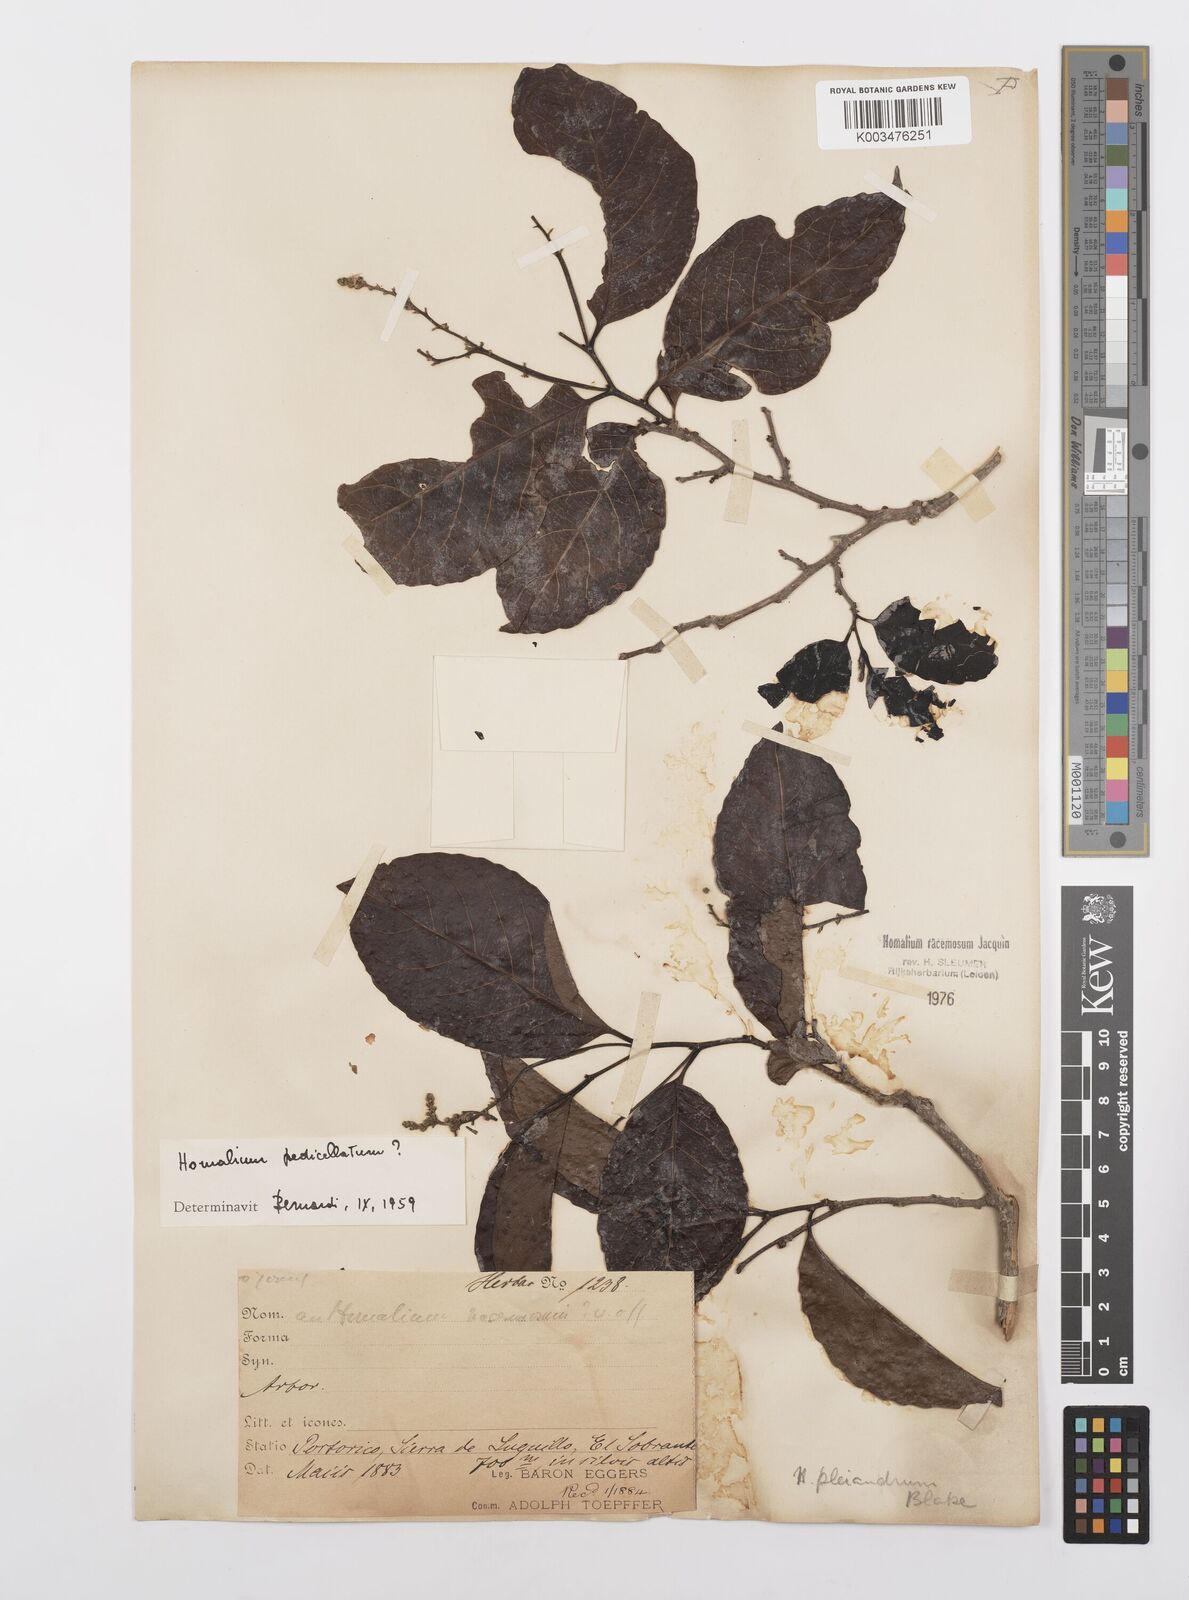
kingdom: Plantae
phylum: Tracheophyta
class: Magnoliopsida
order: Malpighiales
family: Salicaceae
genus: Homalium
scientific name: Homalium racemosum
